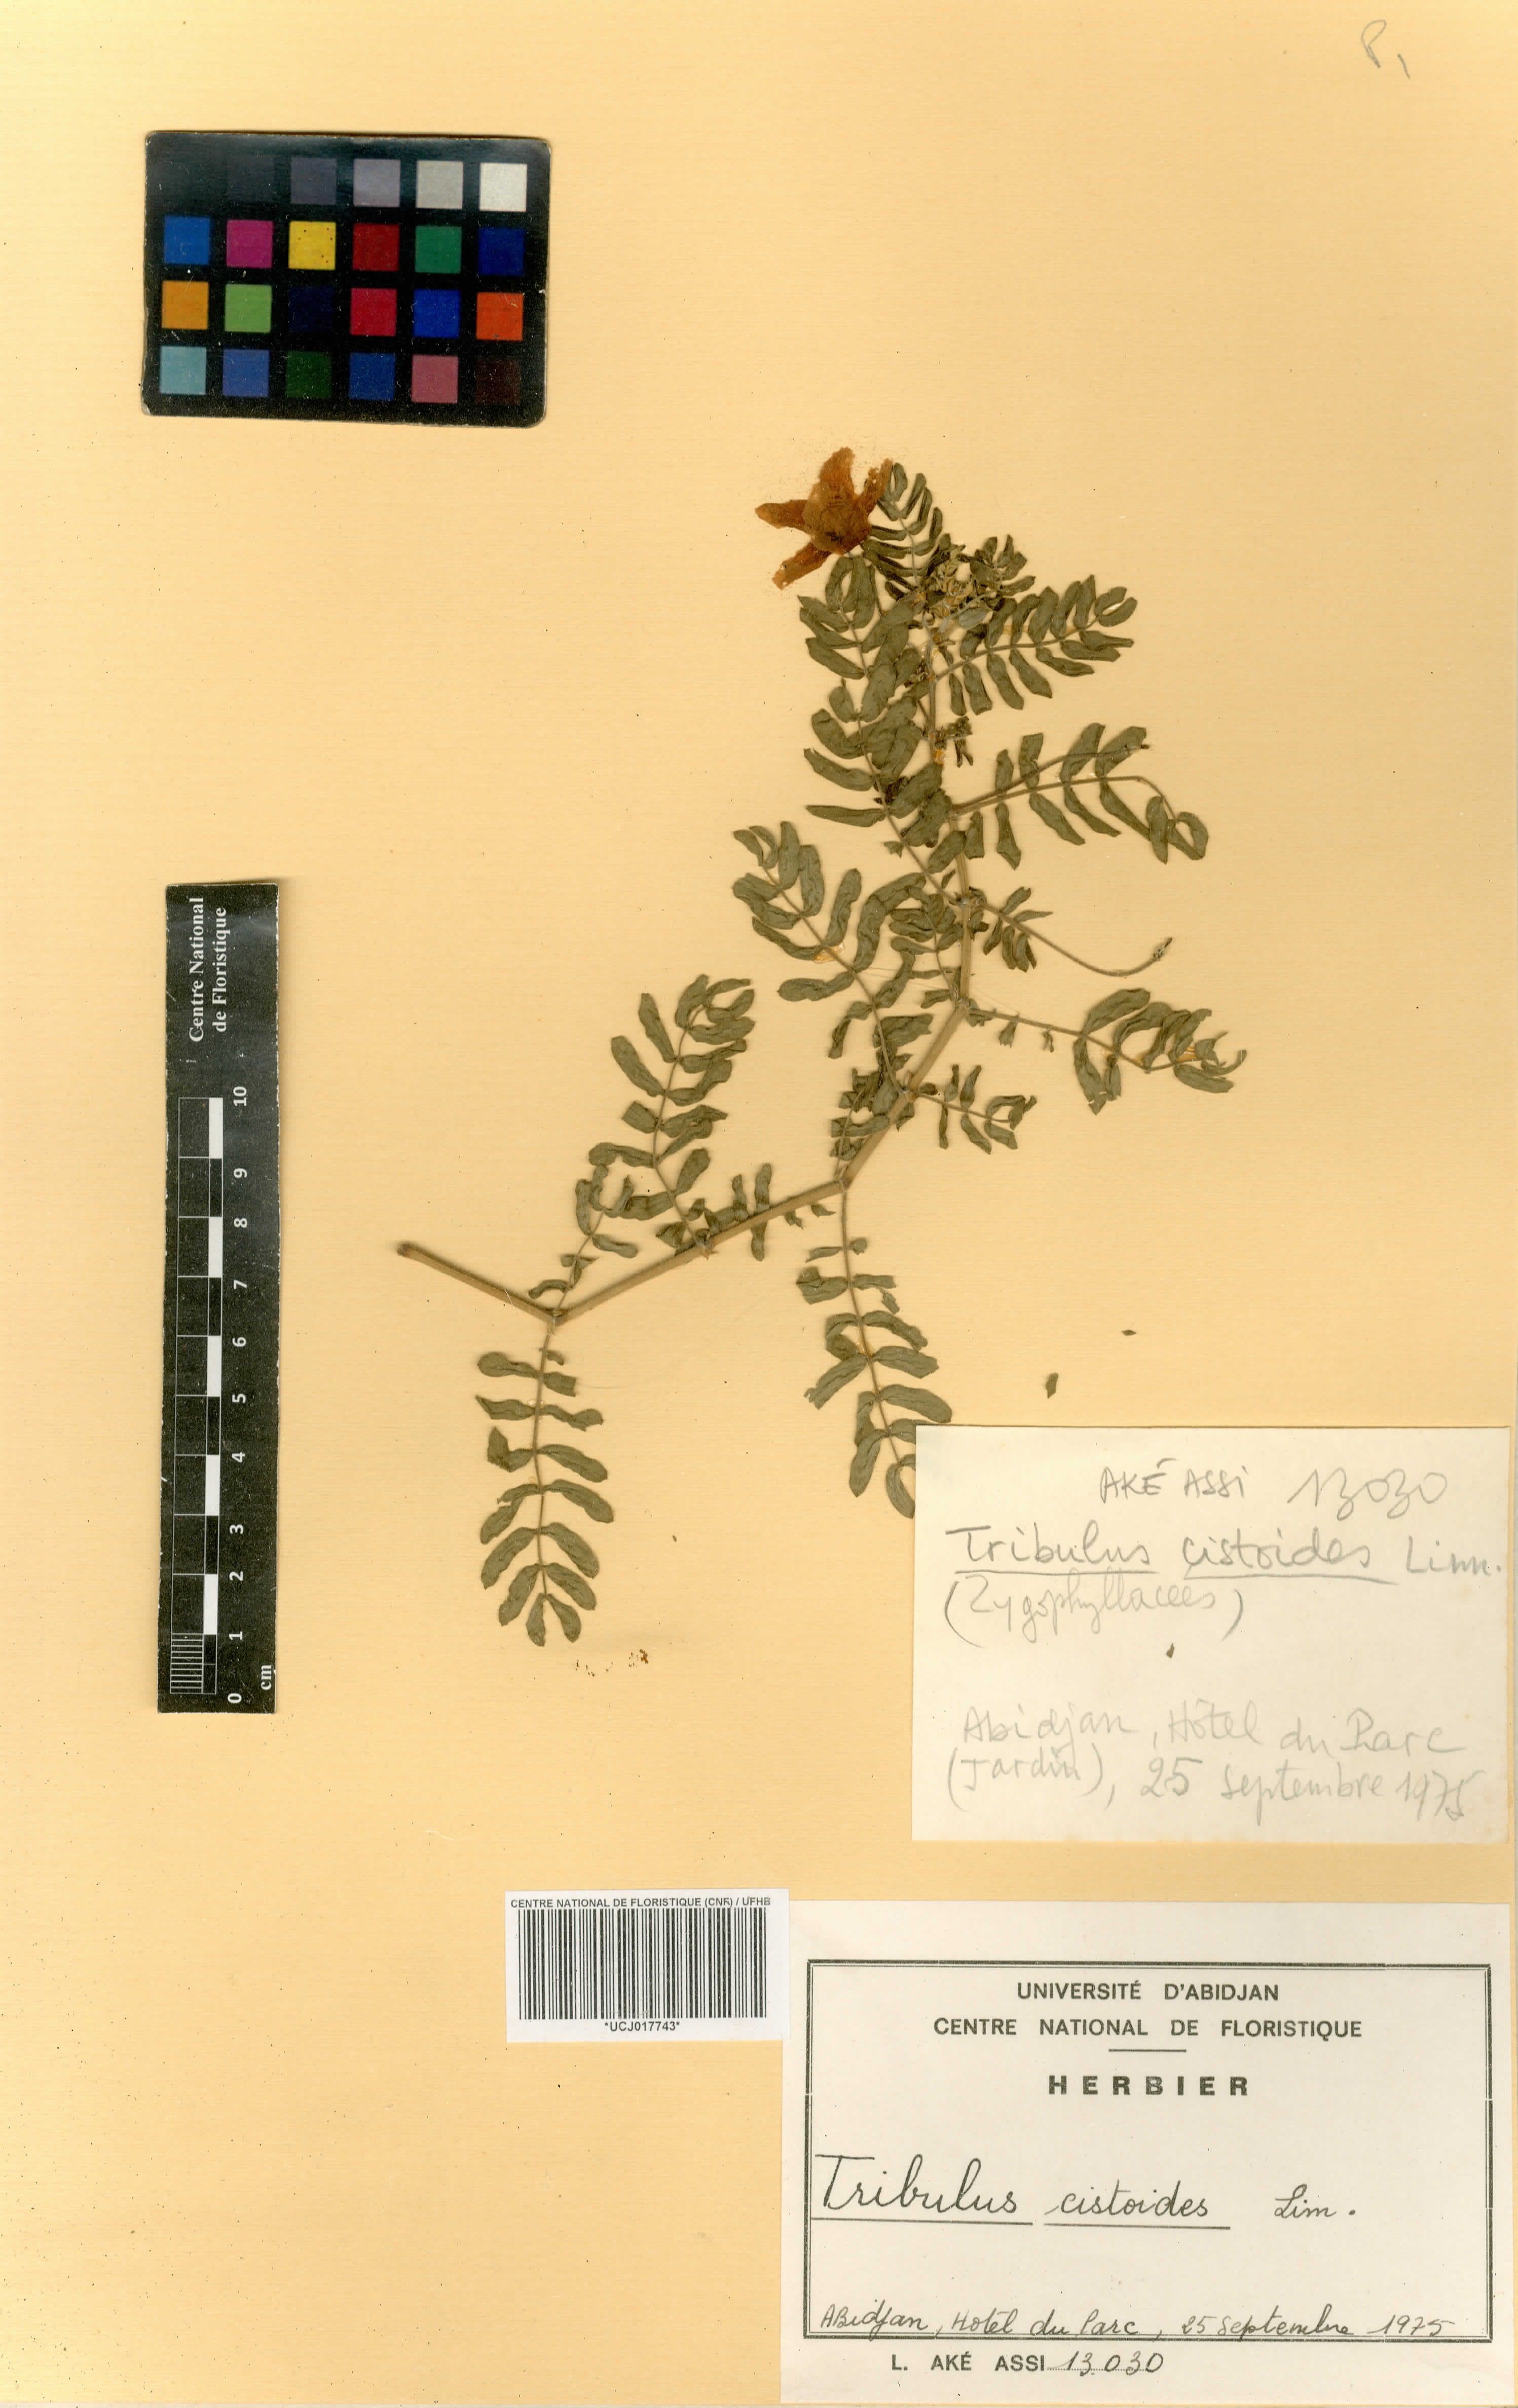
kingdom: Plantae
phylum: Tracheophyta
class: Magnoliopsida
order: Zygophyllales
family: Zygophyllaceae
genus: Tribulus
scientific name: Tribulus cistoides
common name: Jamaican feverplant
